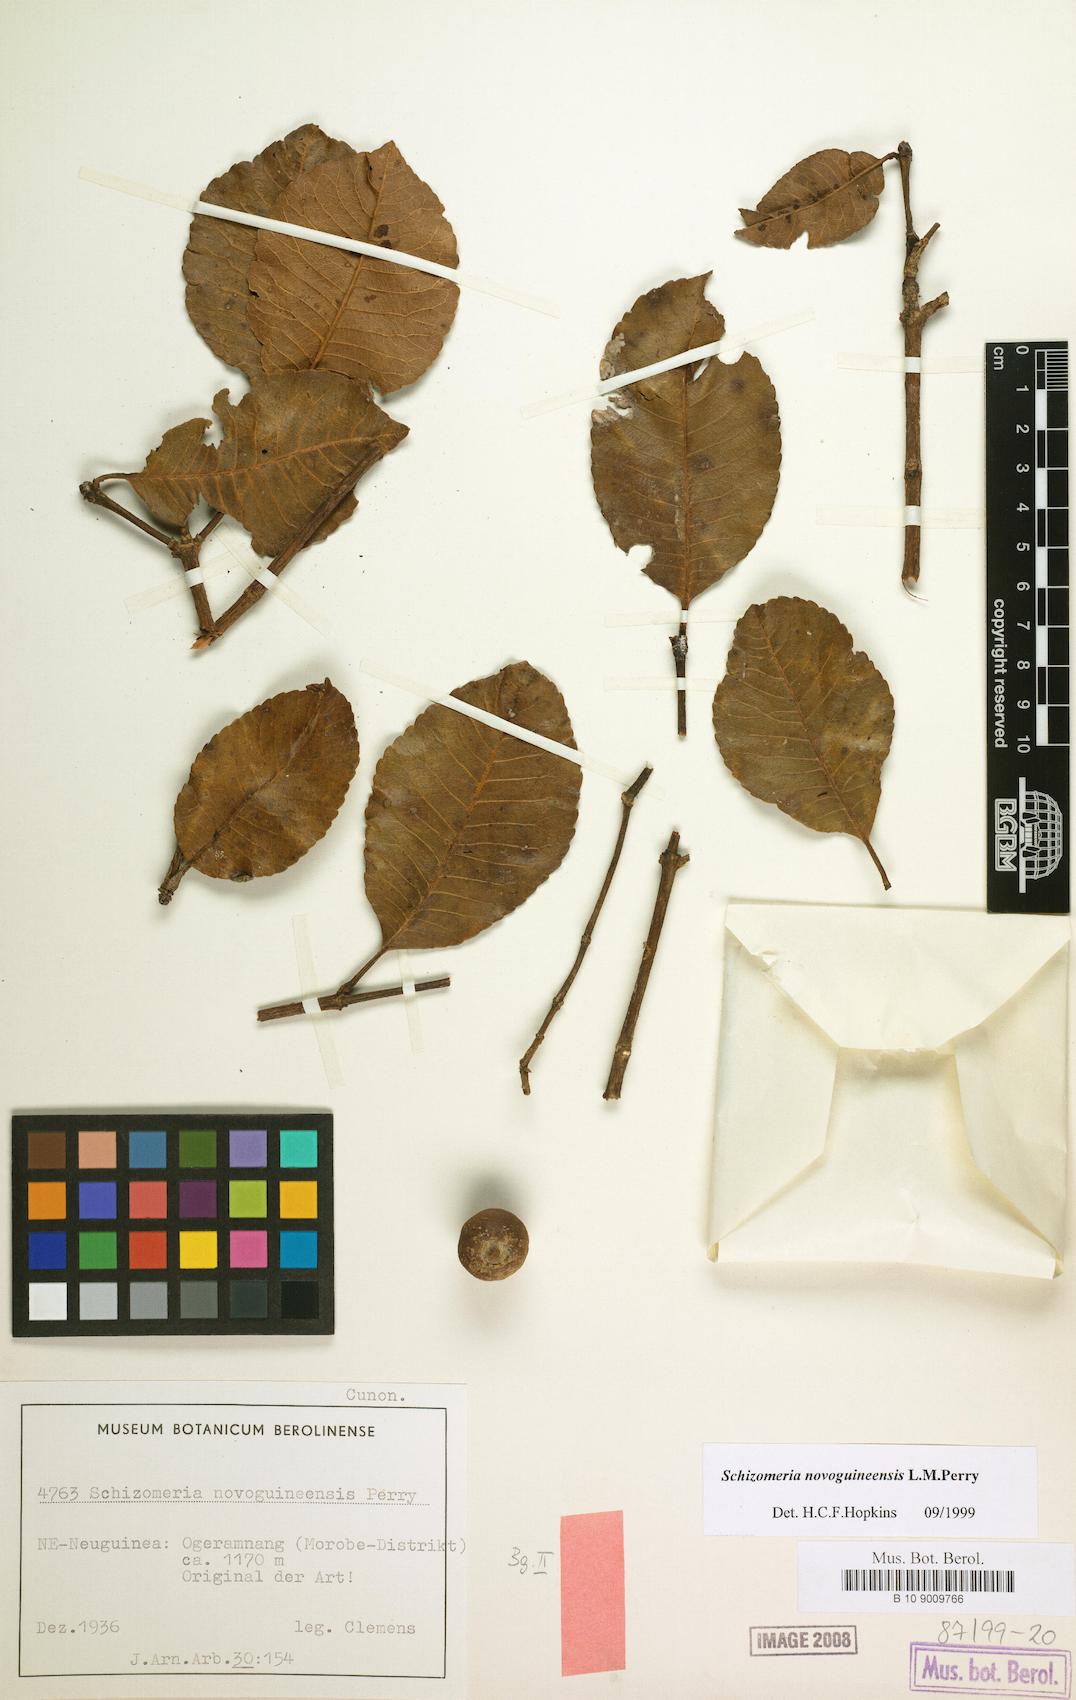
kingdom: Plantae
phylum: Tracheophyta
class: Magnoliopsida
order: Oxalidales
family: Cunoniaceae
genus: Schizomeria
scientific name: Schizomeria novoguineensis
